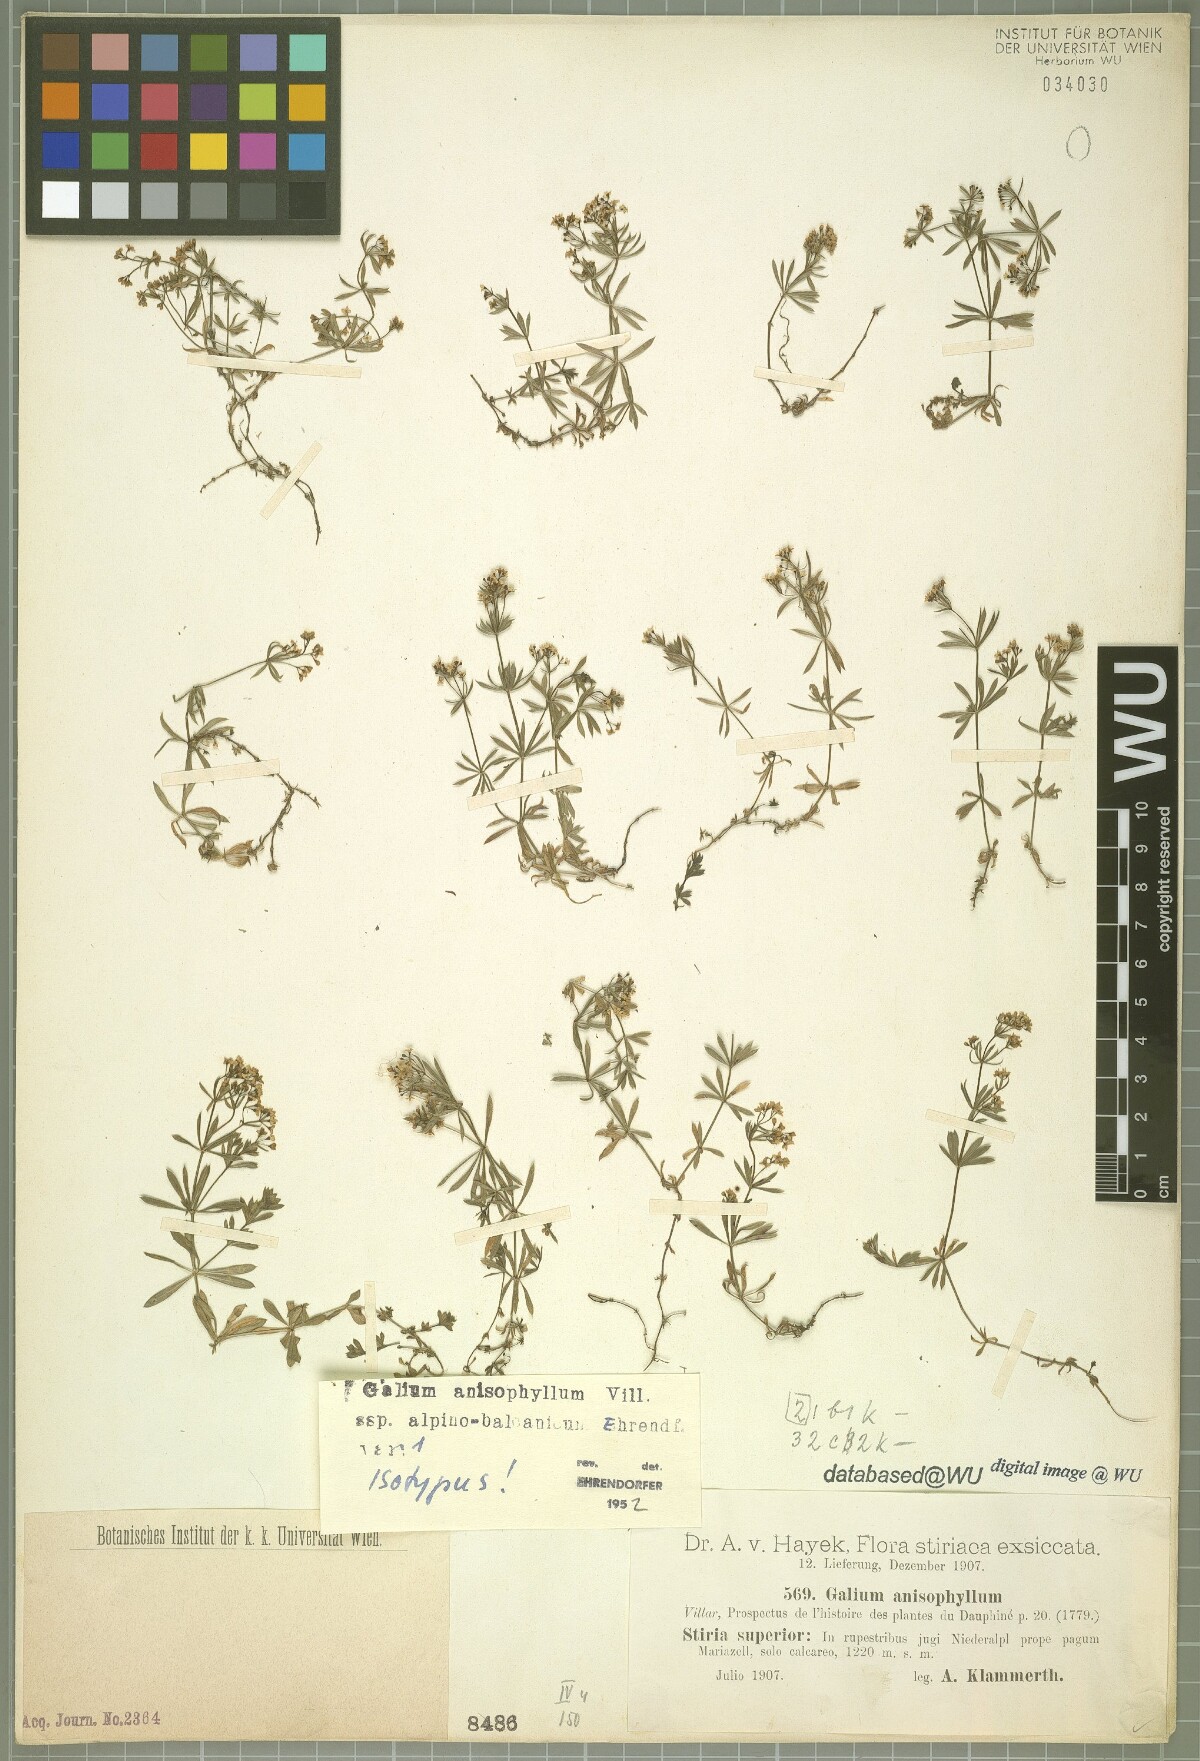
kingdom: Plantae
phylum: Tracheophyta
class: Magnoliopsida
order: Gentianales
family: Rubiaceae
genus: Galium
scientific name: Galium anisophyllon
